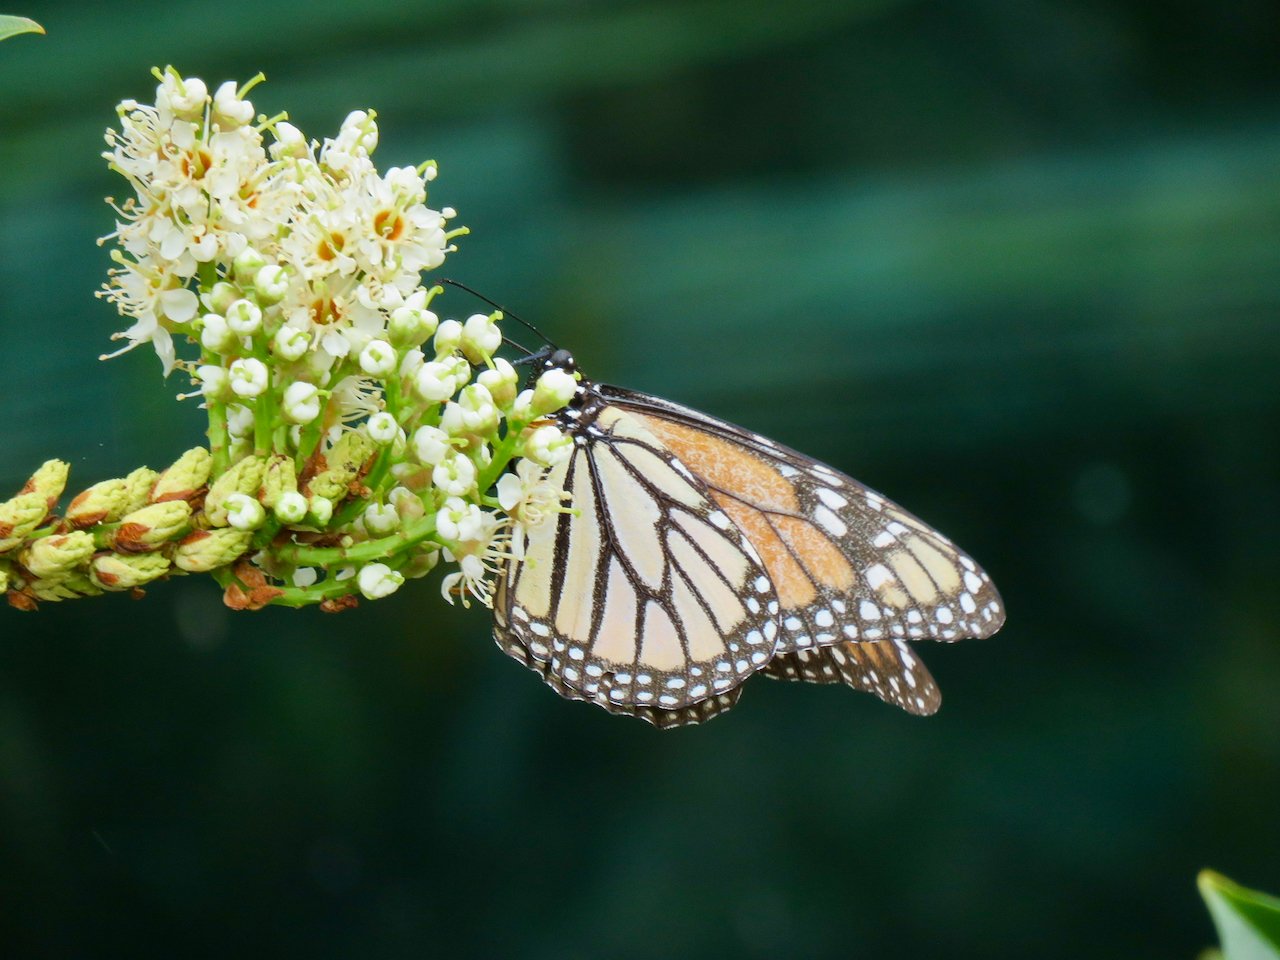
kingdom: Animalia
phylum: Arthropoda
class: Insecta
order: Lepidoptera
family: Nymphalidae
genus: Danaus
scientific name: Danaus plexippus
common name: Monarch
